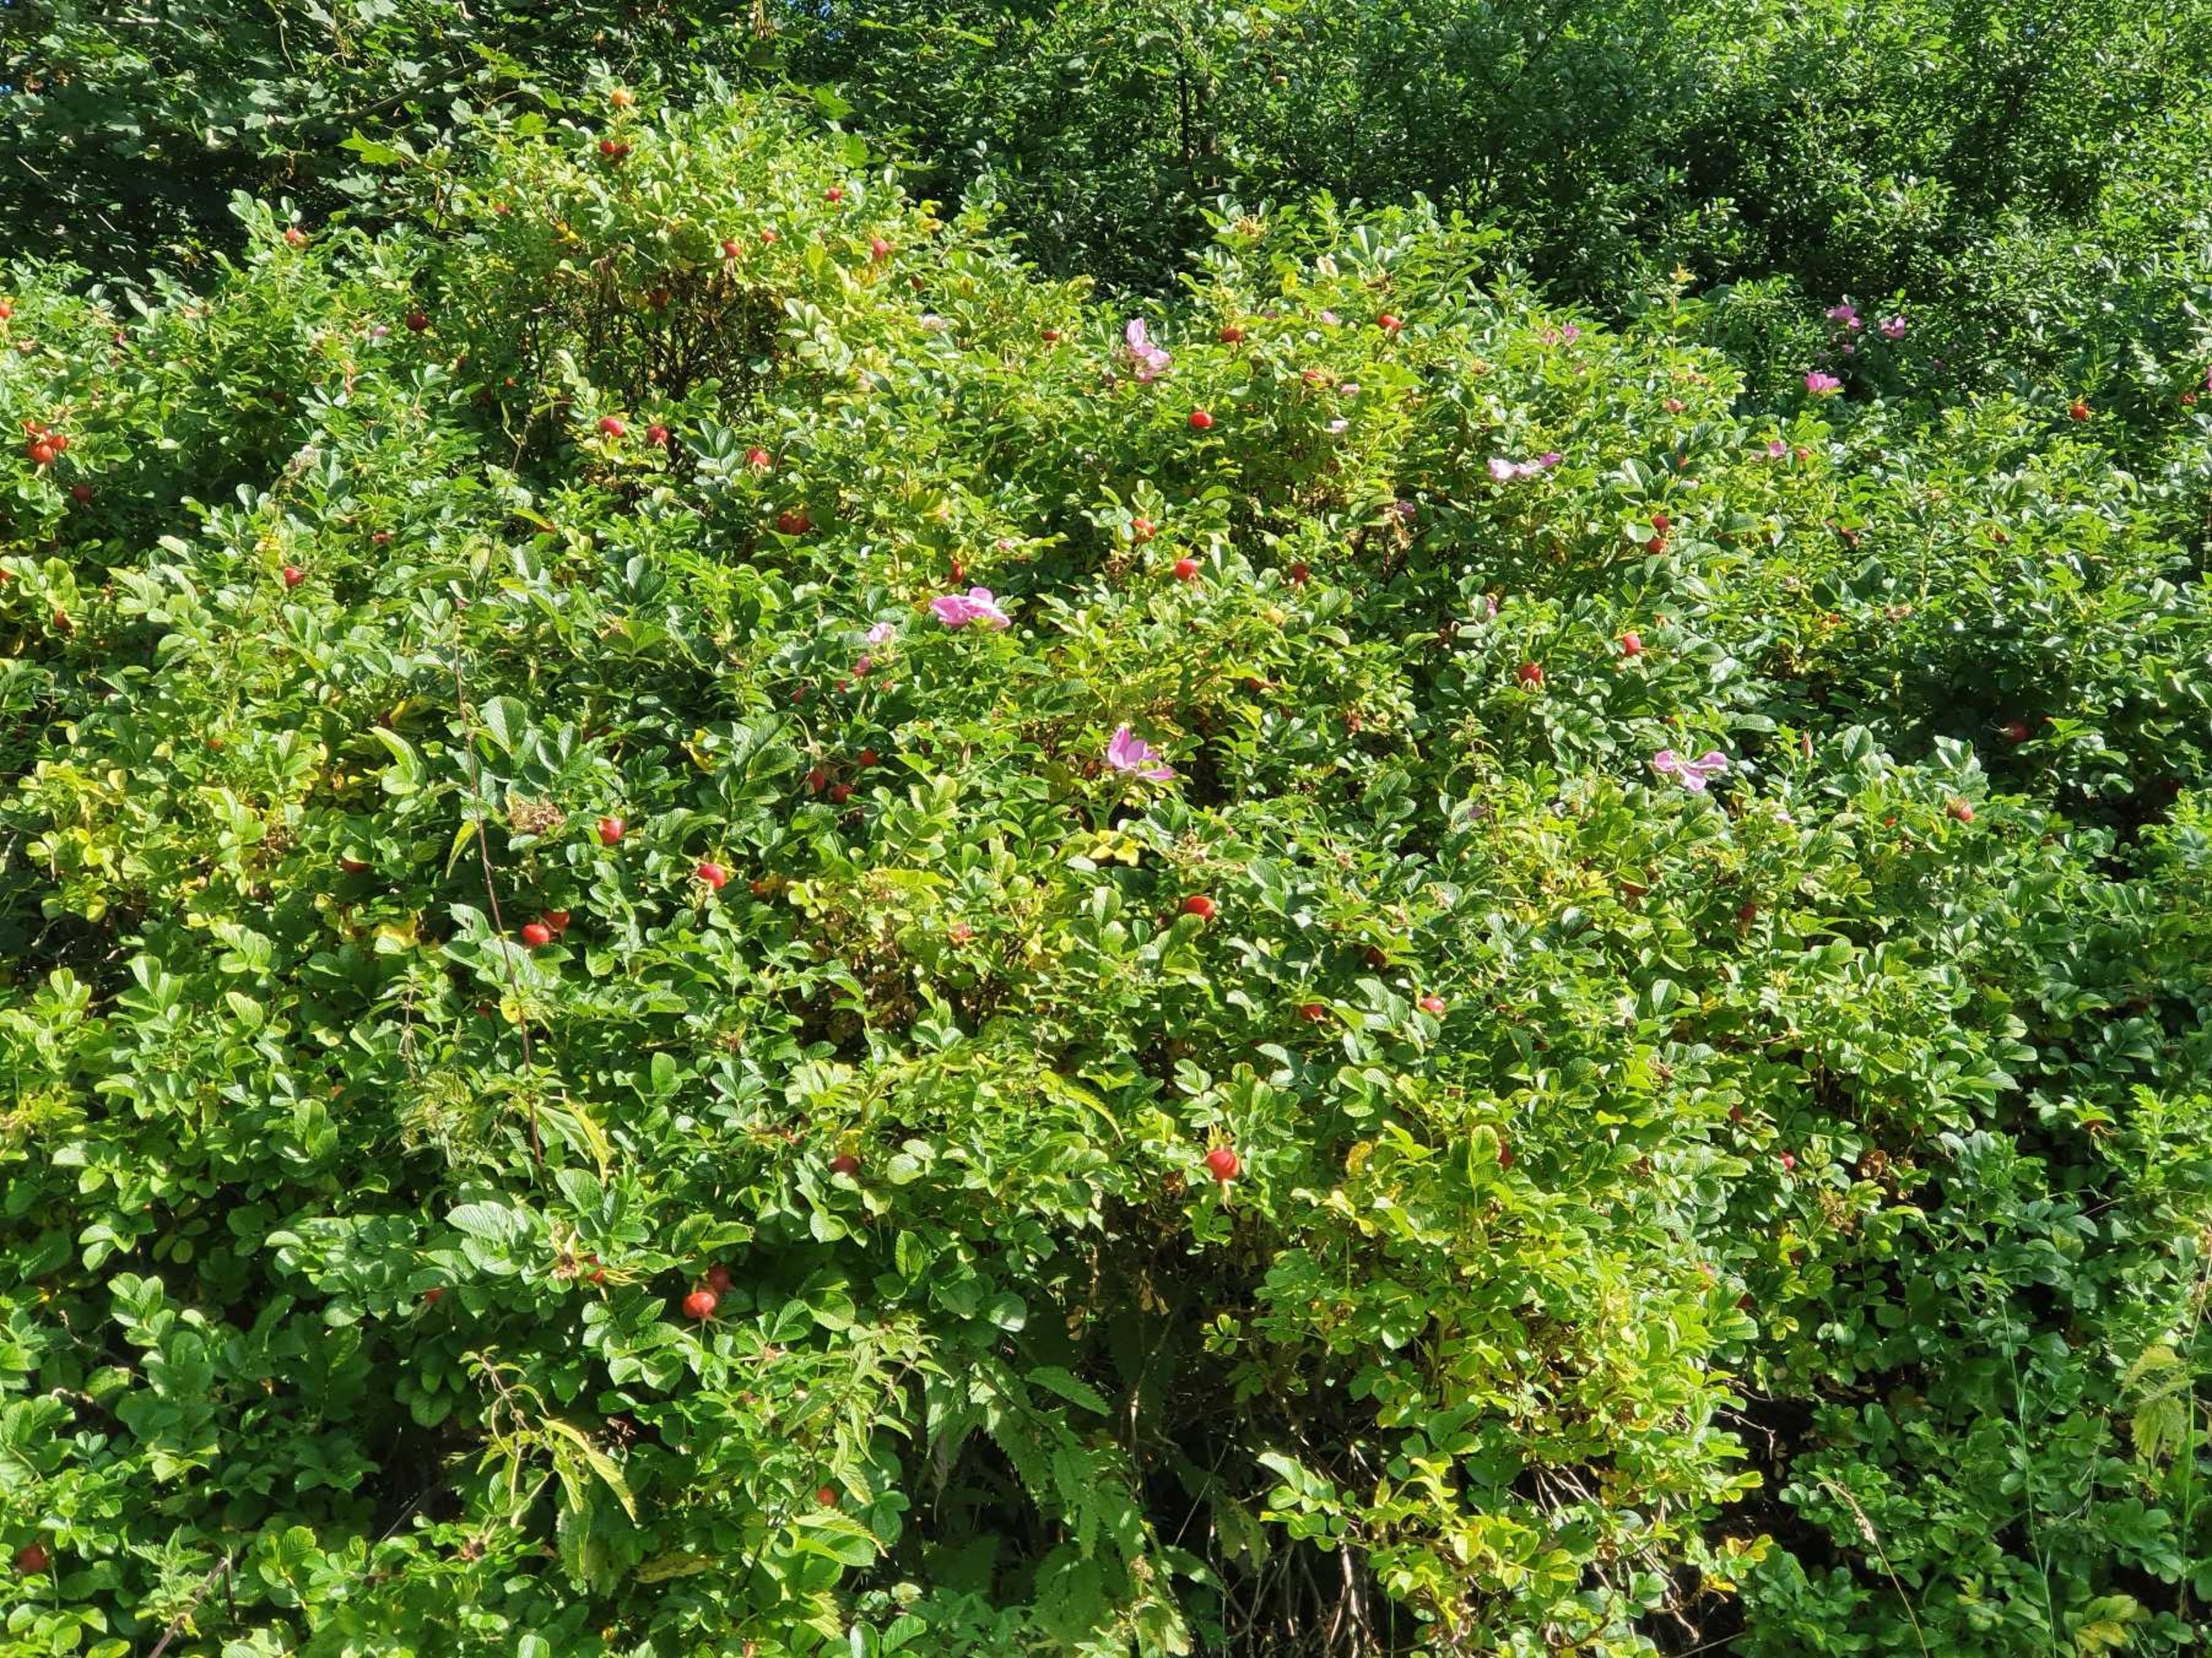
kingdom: Plantae
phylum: Tracheophyta
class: Magnoliopsida
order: Rosales
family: Rosaceae
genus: Rosa
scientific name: Rosa rugosa
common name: Rynket rose
